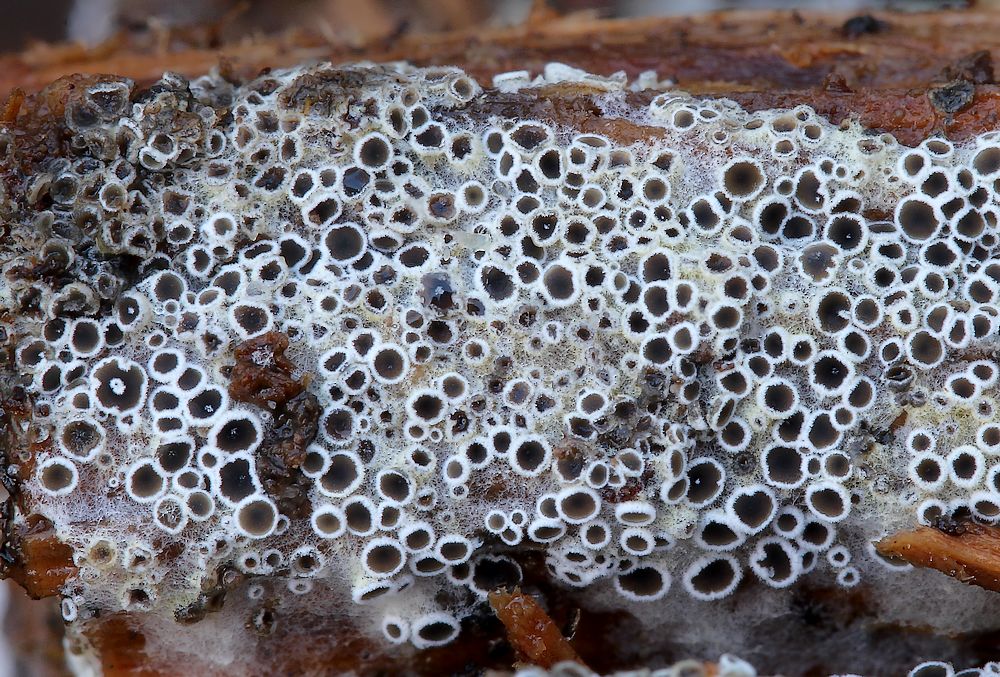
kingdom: Fungi
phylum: Ascomycota
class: Leotiomycetes
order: Helotiales
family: Arachnopezizaceae
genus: Eriopezia
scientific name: Eriopezia caesia
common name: ege-spindskive
